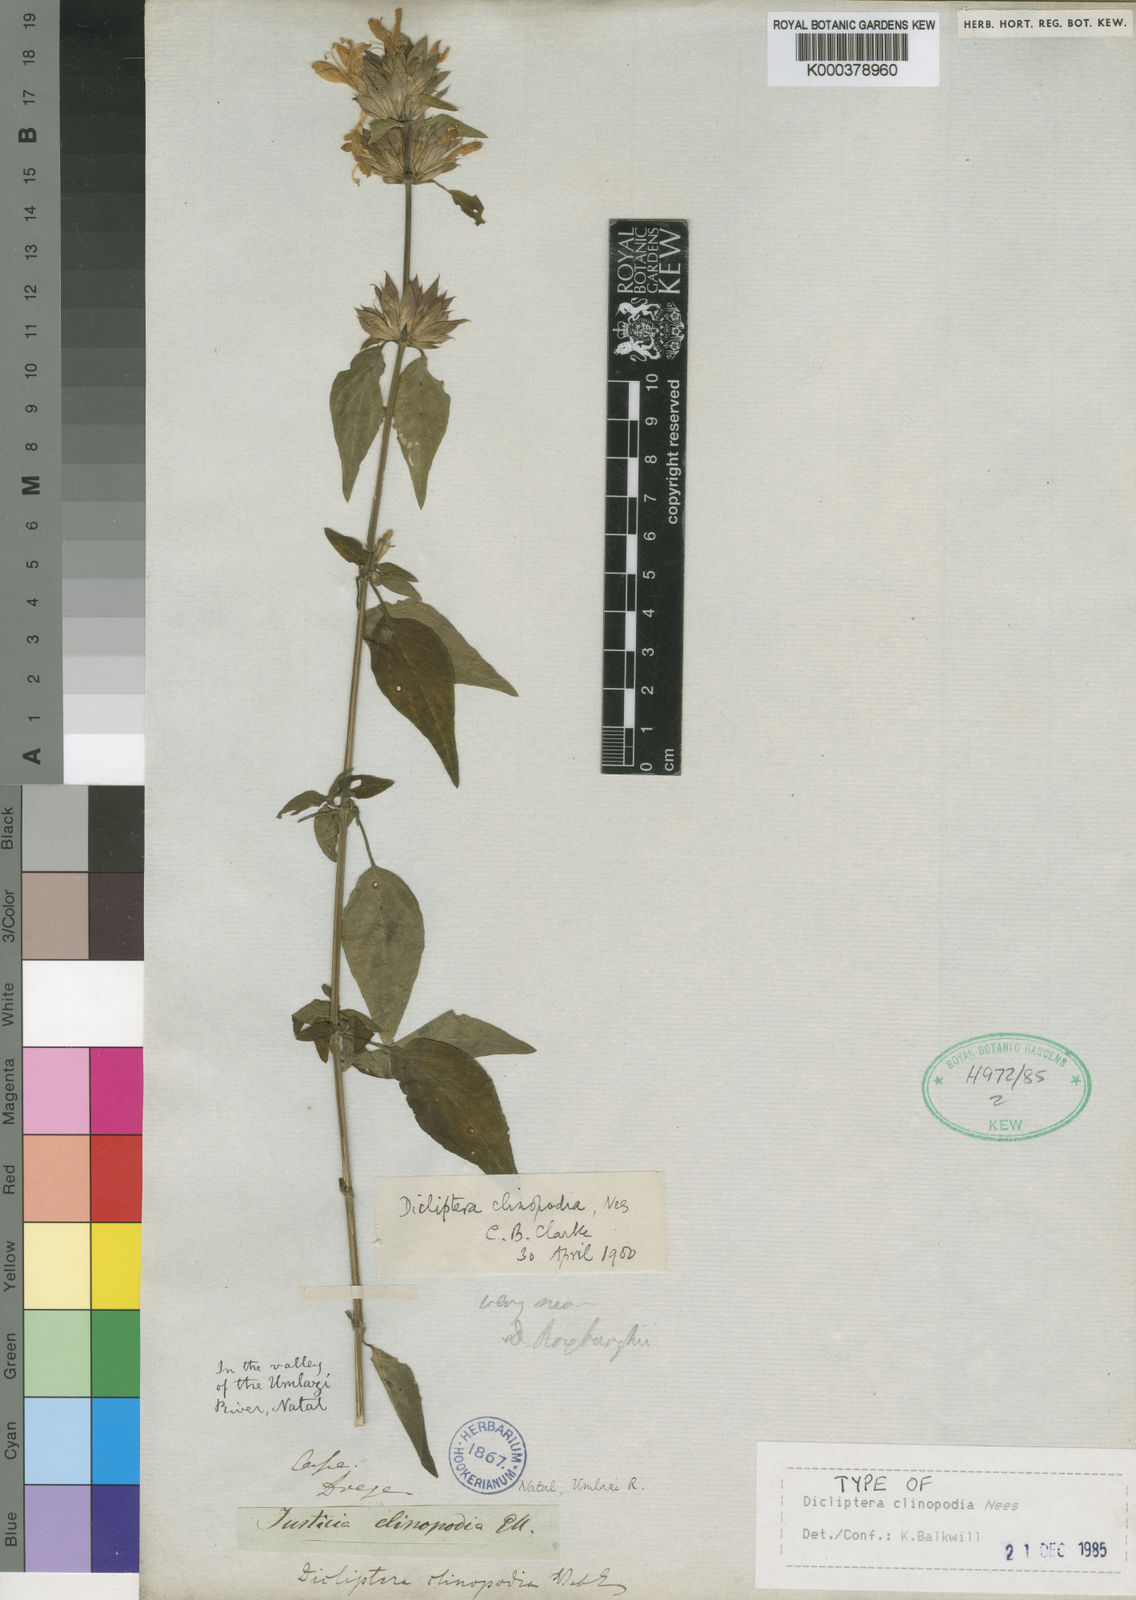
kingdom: Plantae
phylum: Tracheophyta
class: Magnoliopsida
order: Lamiales
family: Acanthaceae
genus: Dicliptera
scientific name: Dicliptera clinopodia
